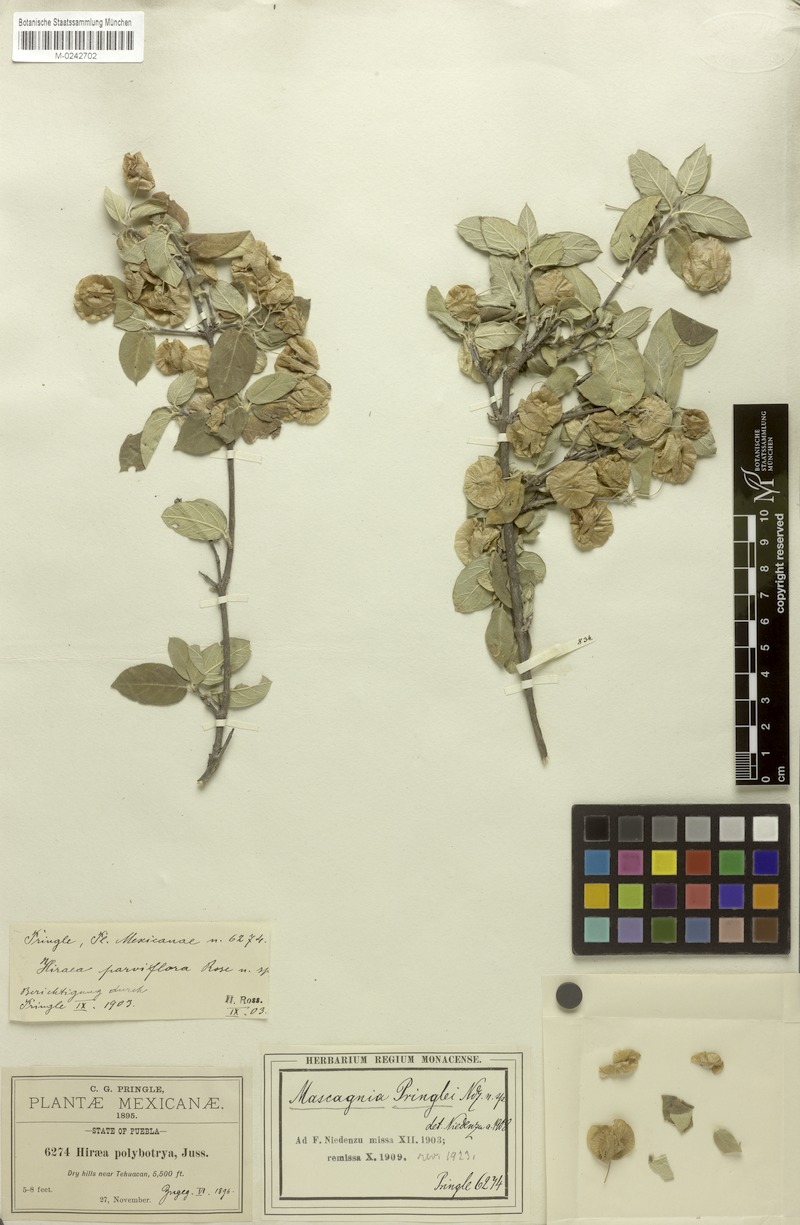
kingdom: Plantae
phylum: Tracheophyta
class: Magnoliopsida
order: Malpighiales
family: Malpighiaceae
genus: Calcicola
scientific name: Calcicola parvifolia
